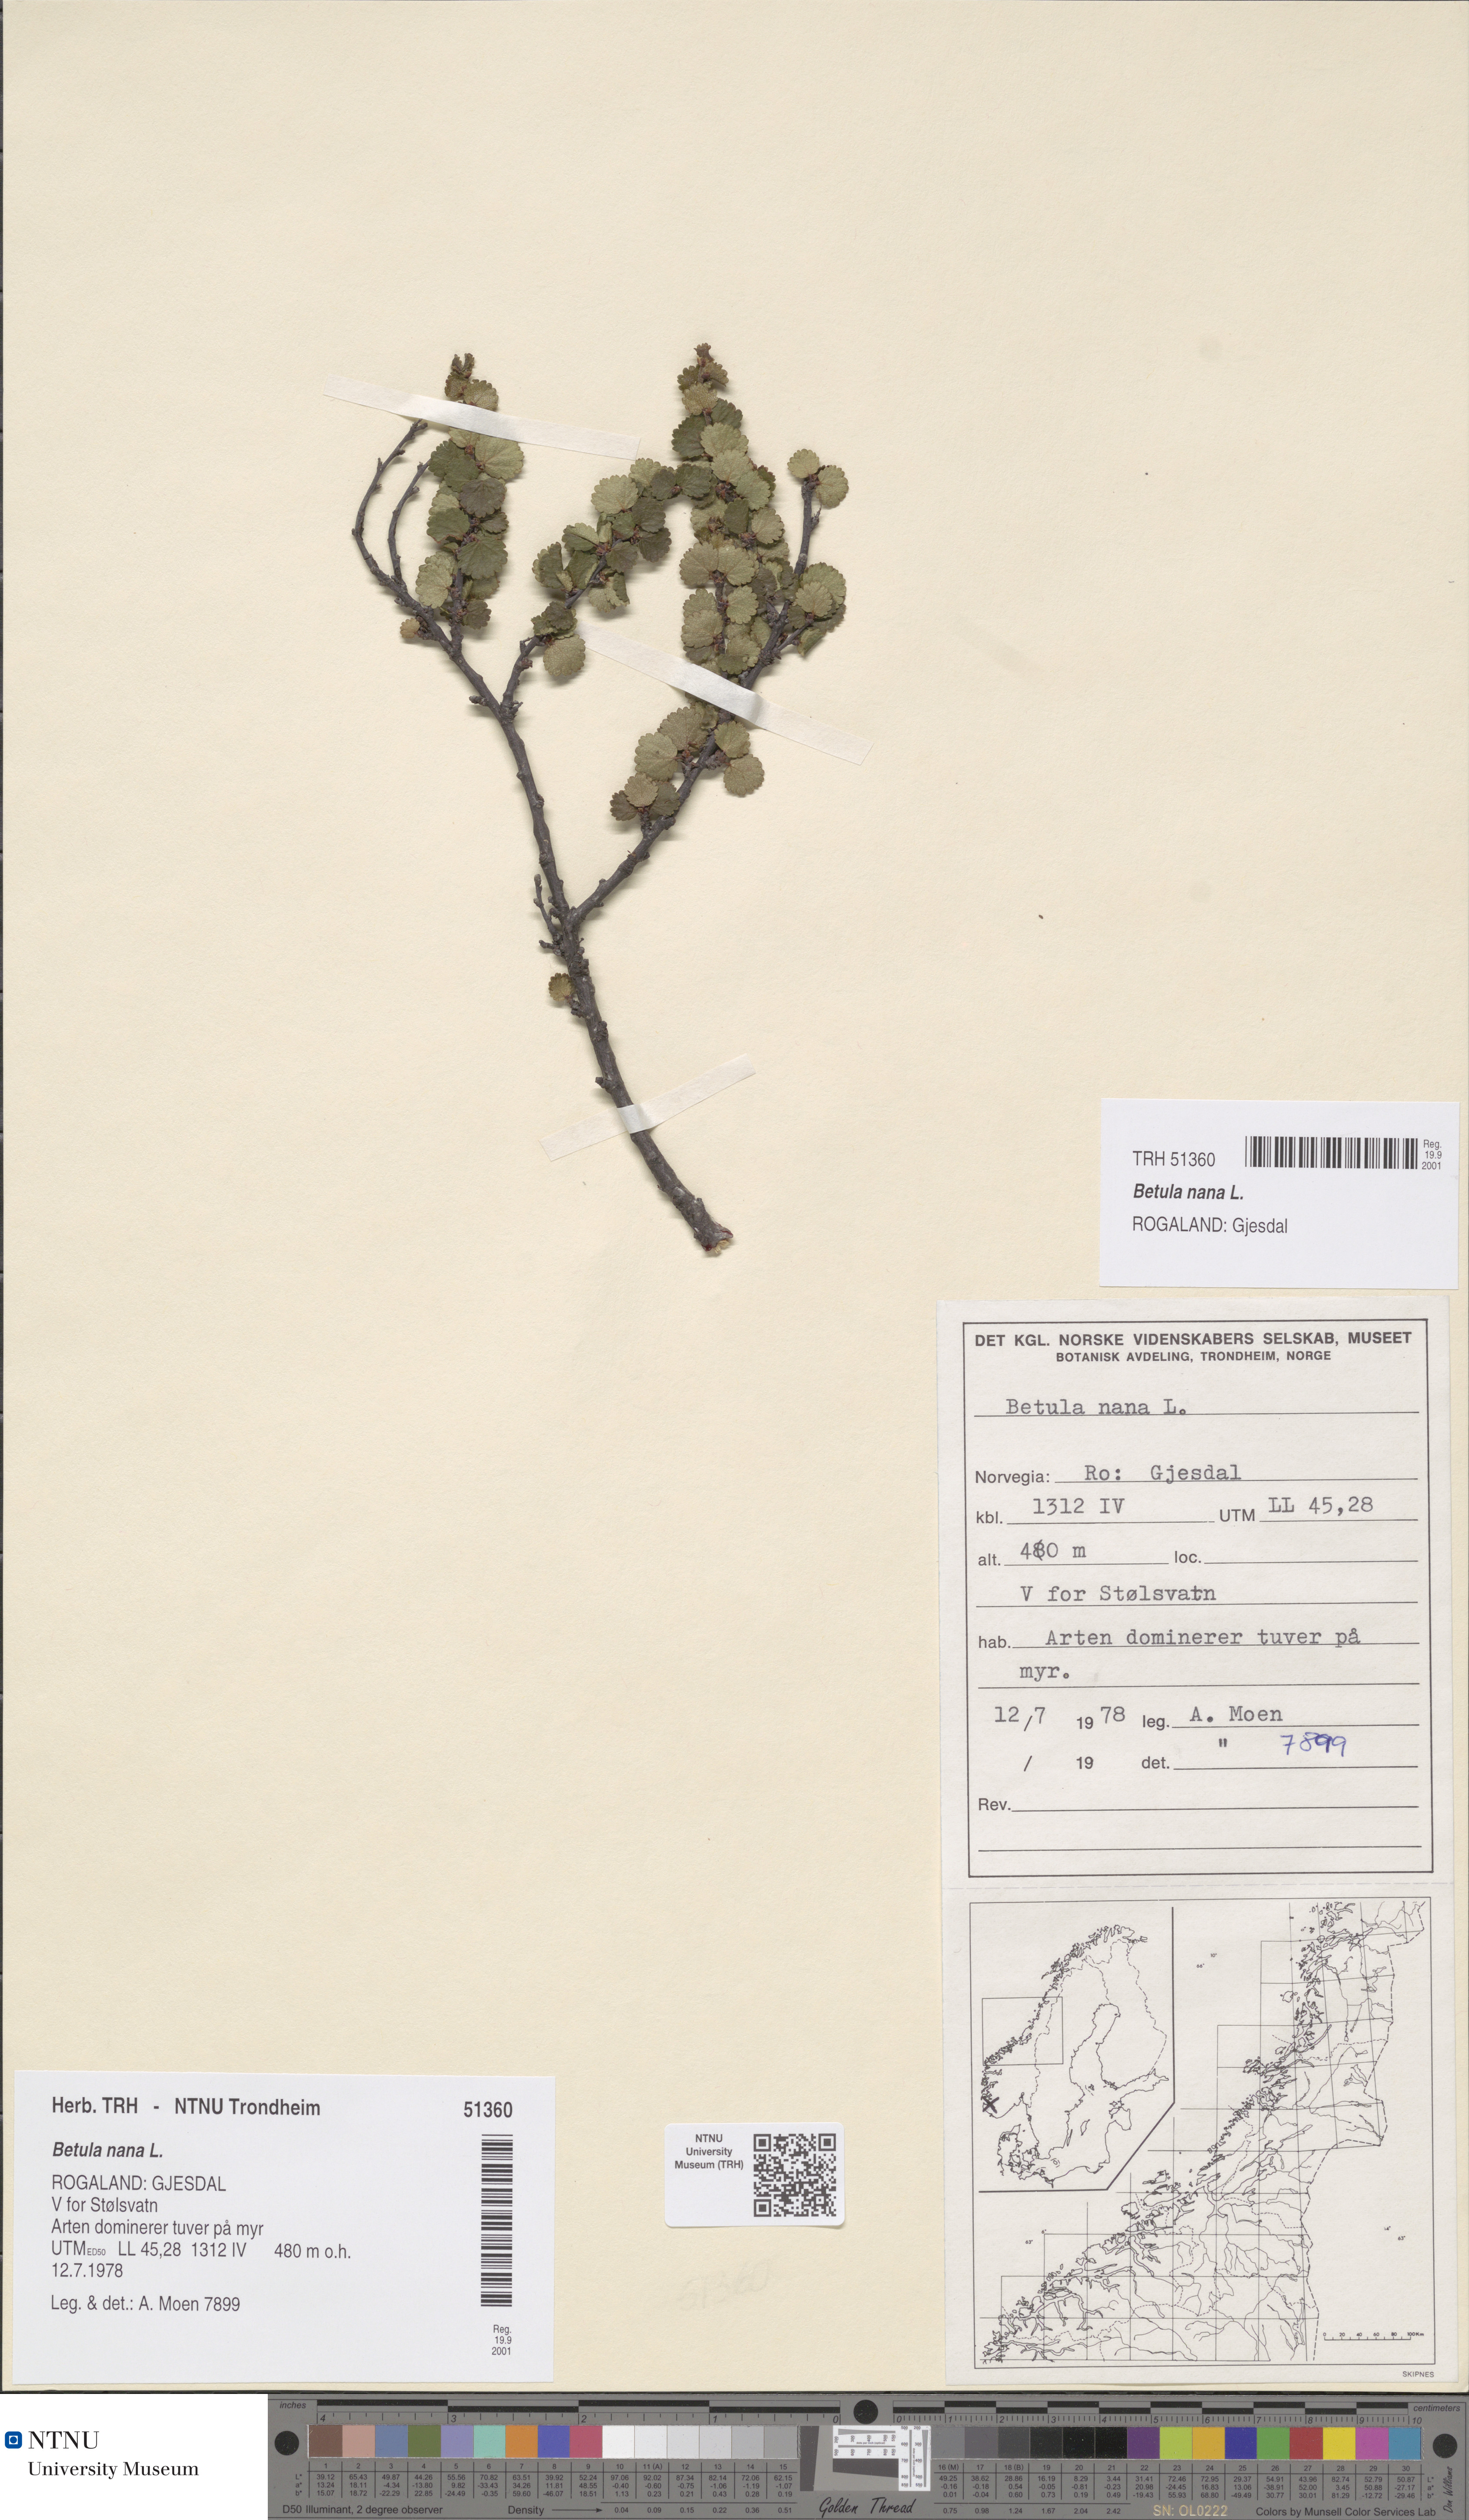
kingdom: Plantae
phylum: Tracheophyta
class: Magnoliopsida
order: Fagales
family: Betulaceae
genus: Betula
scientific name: Betula nana
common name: Arctic dwarf birch
